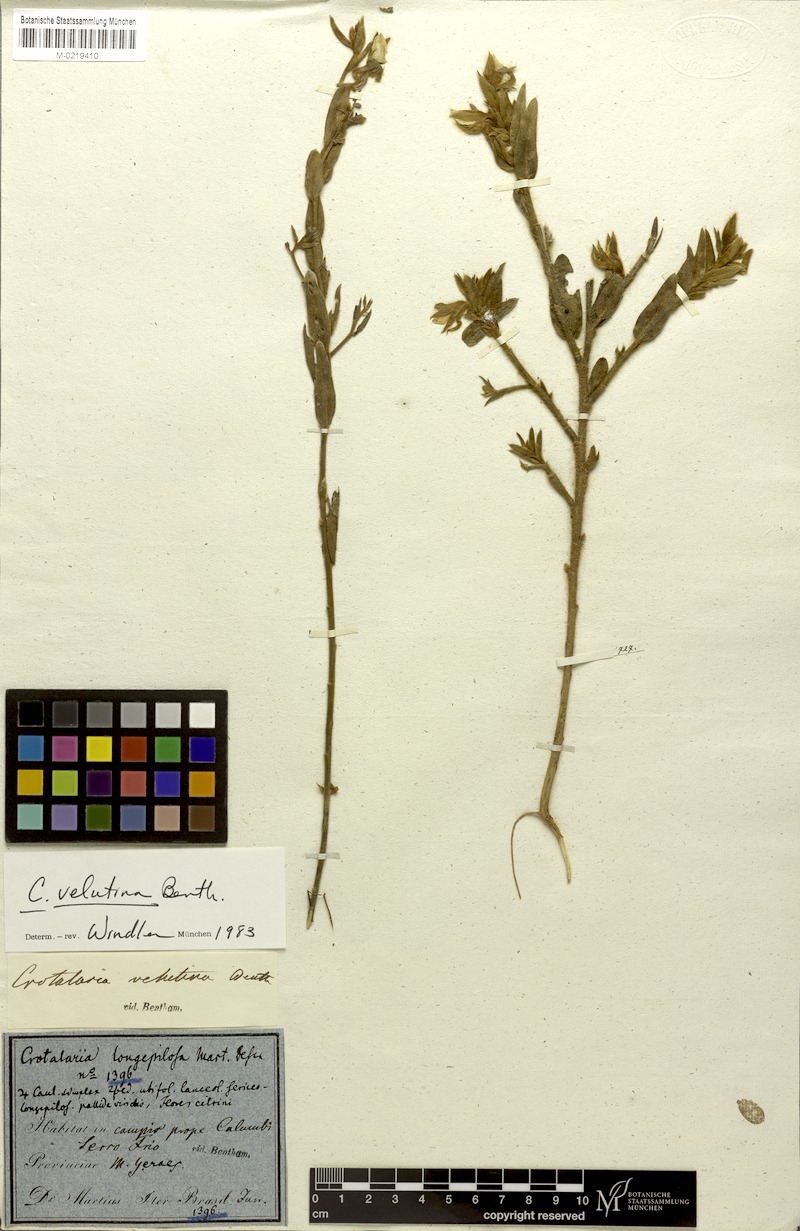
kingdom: Plantae
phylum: Tracheophyta
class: Magnoliopsida
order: Fabales
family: Fabaceae
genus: Crotalaria
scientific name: Crotalaria velutina
